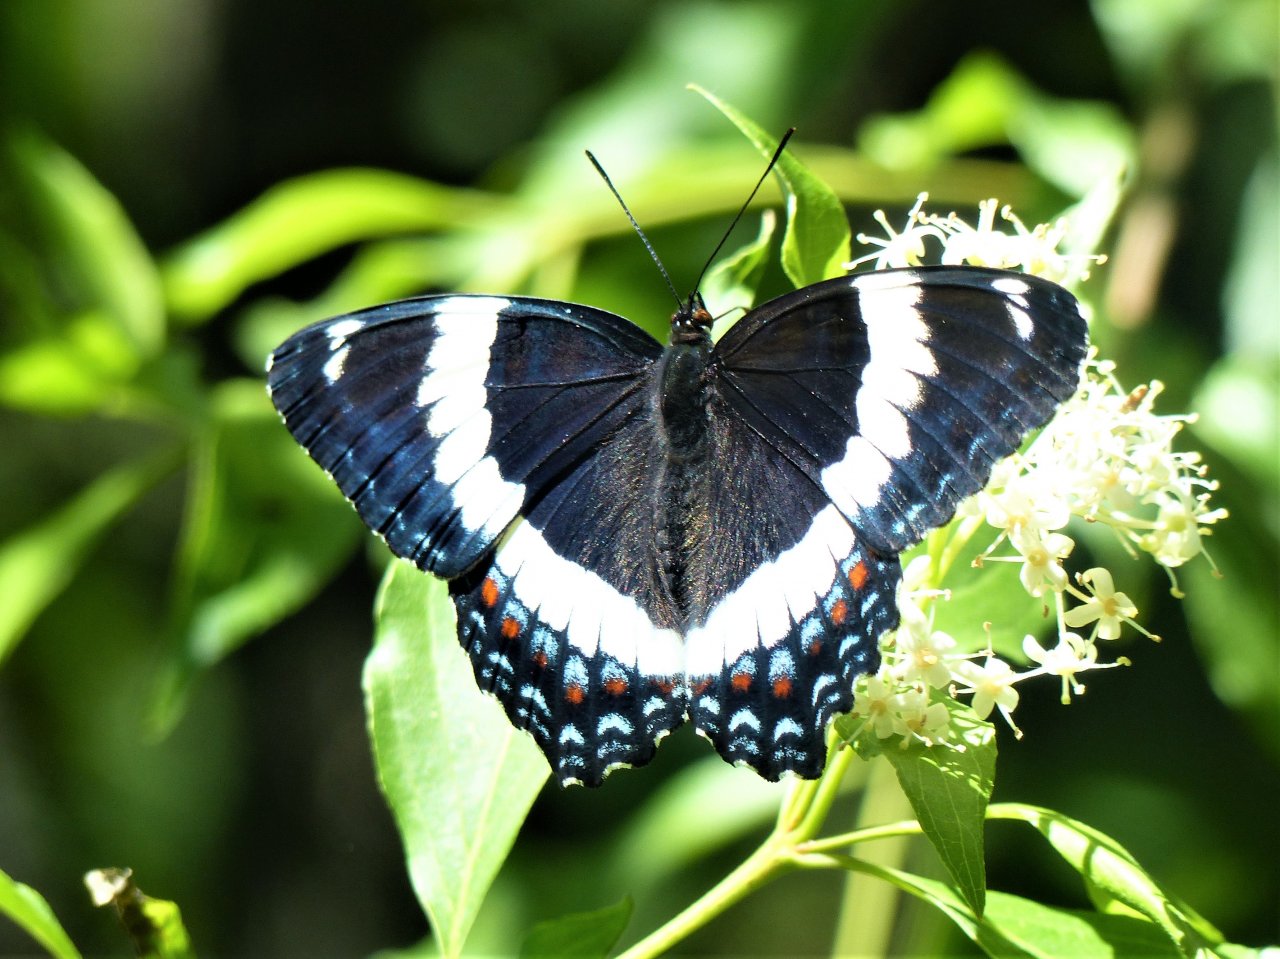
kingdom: Animalia
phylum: Arthropoda
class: Insecta
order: Lepidoptera
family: Nymphalidae
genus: Limenitis
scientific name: Limenitis arthemis
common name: Red-spotted Admiral
